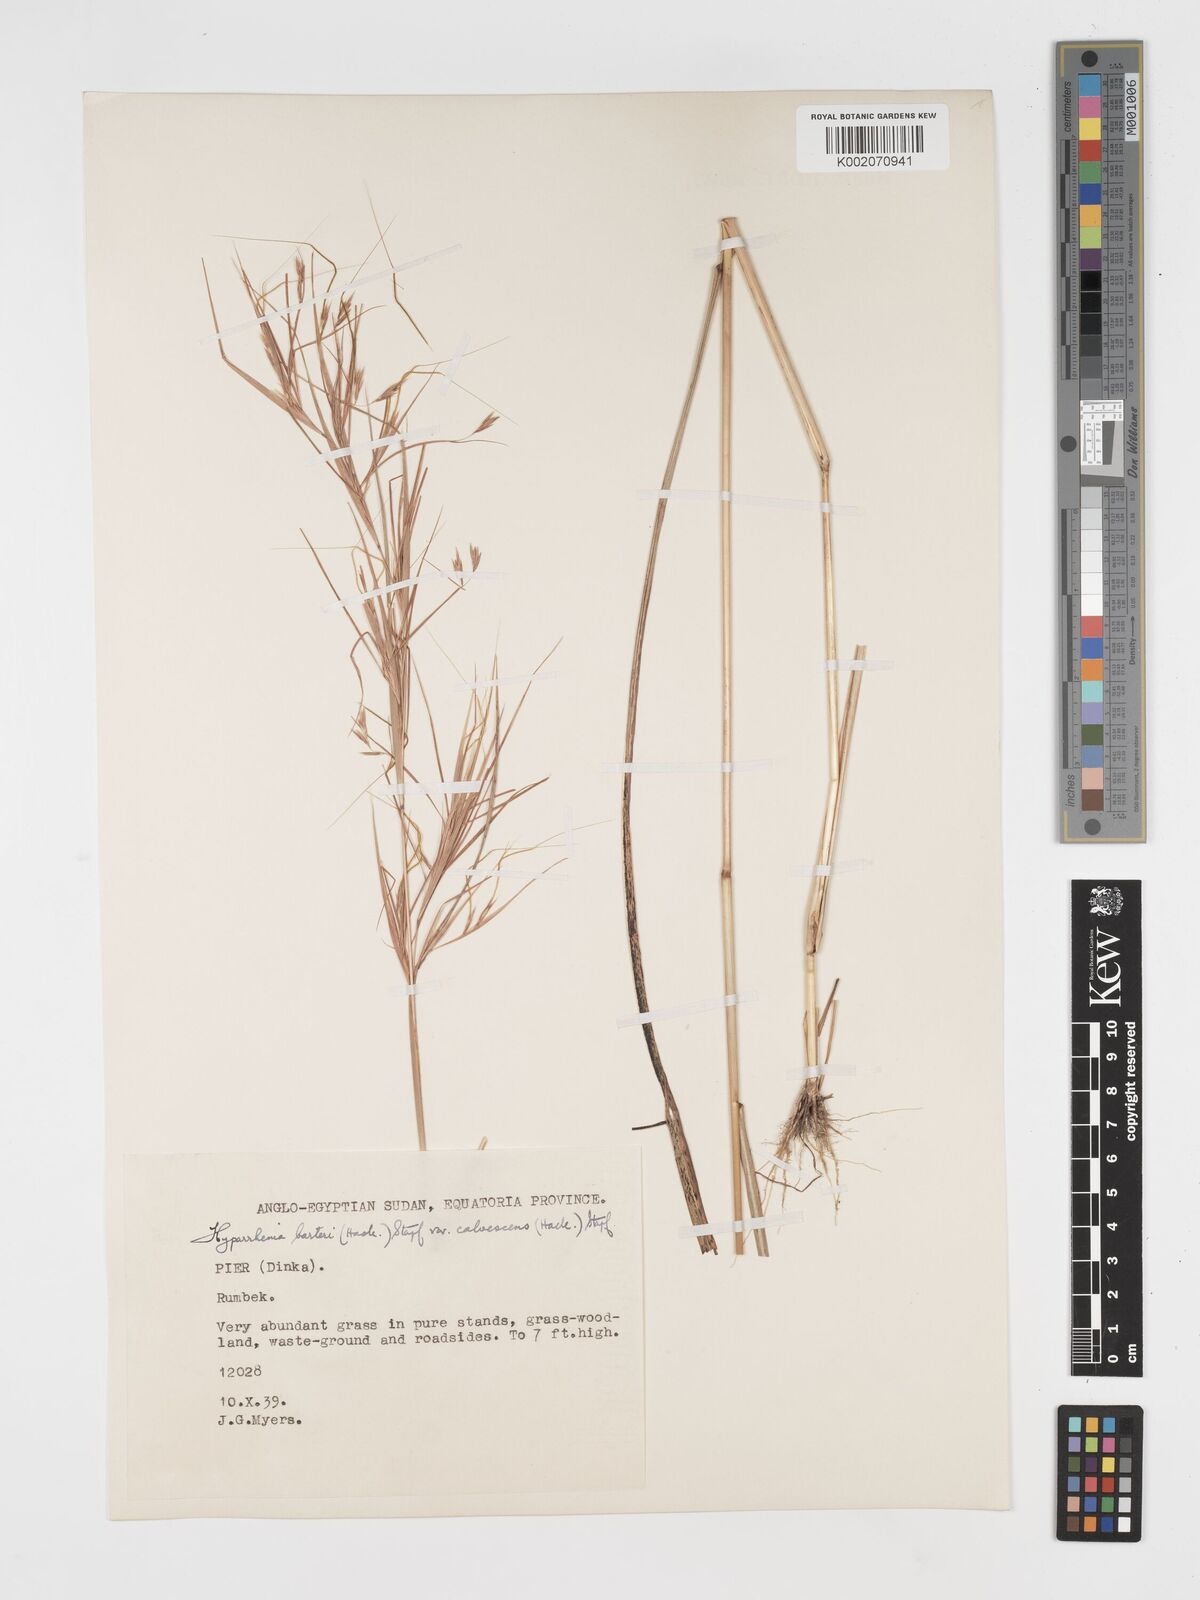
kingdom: Plantae
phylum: Tracheophyta
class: Liliopsida
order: Poales
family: Poaceae
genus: Hyparrhenia
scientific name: Hyparrhenia figariana
